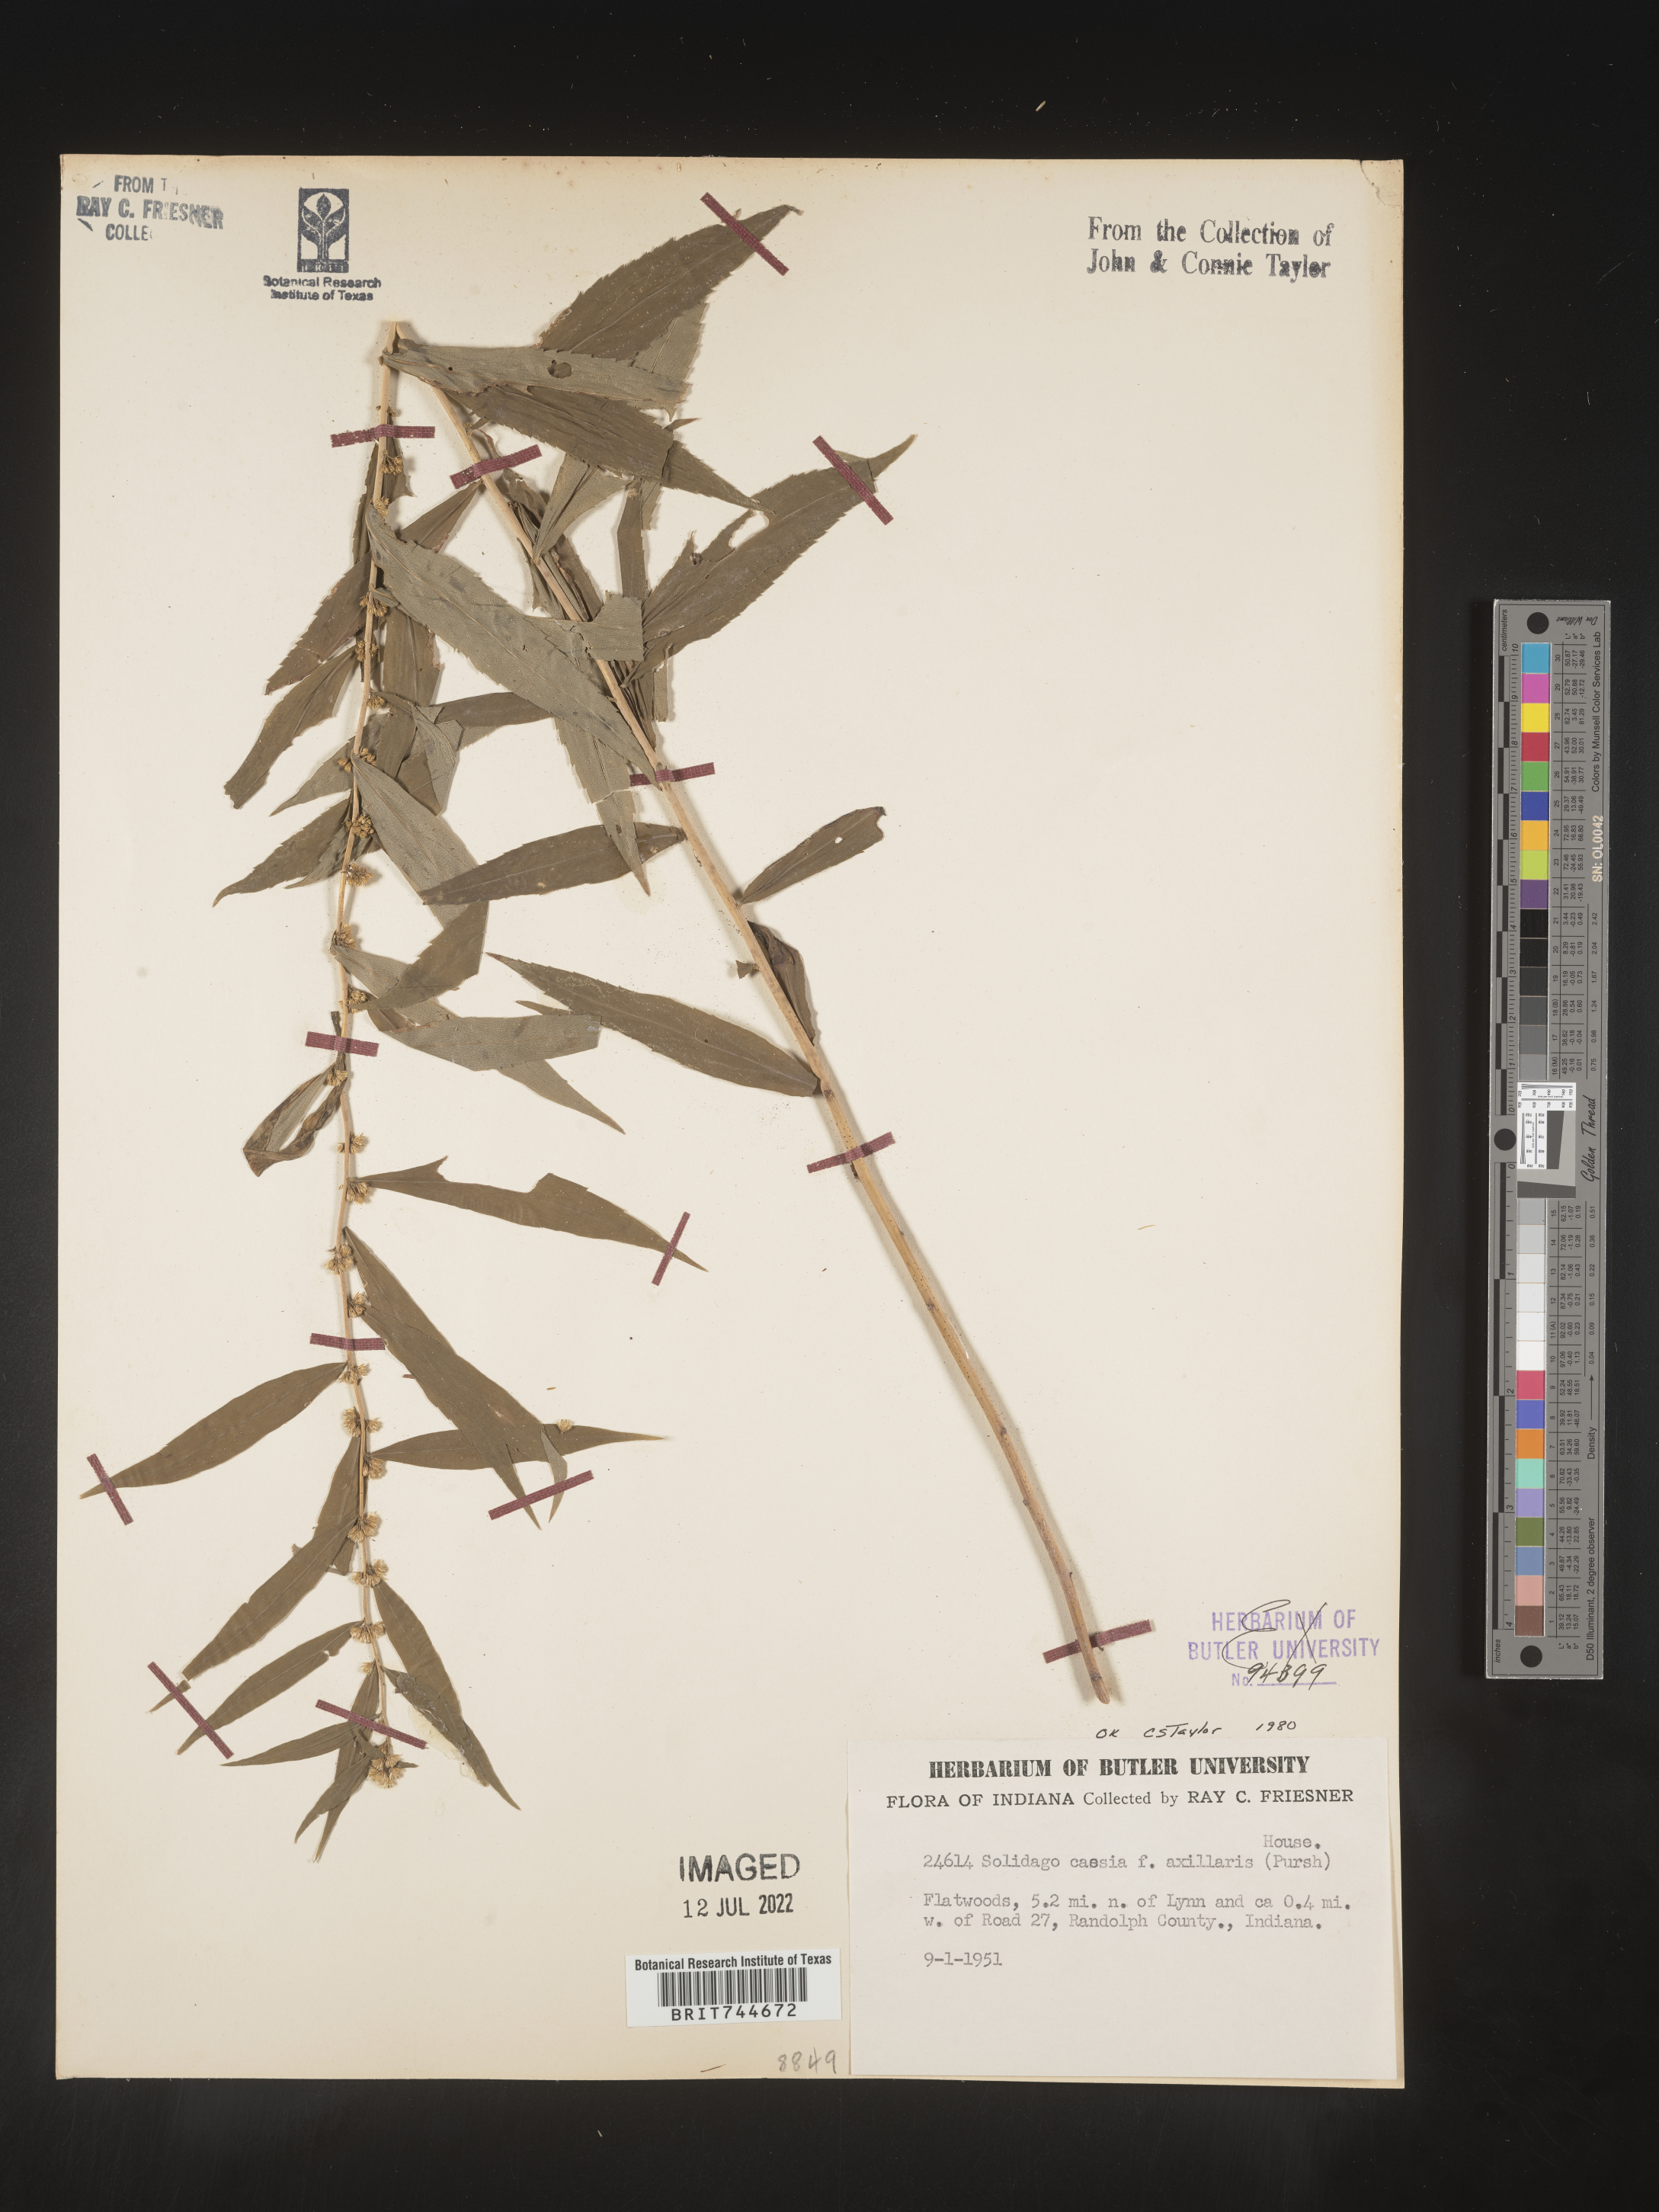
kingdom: Plantae
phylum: Tracheophyta
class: Magnoliopsida
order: Asterales
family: Asteraceae
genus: Solidago
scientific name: Solidago caesia
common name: Woodland goldenrod
